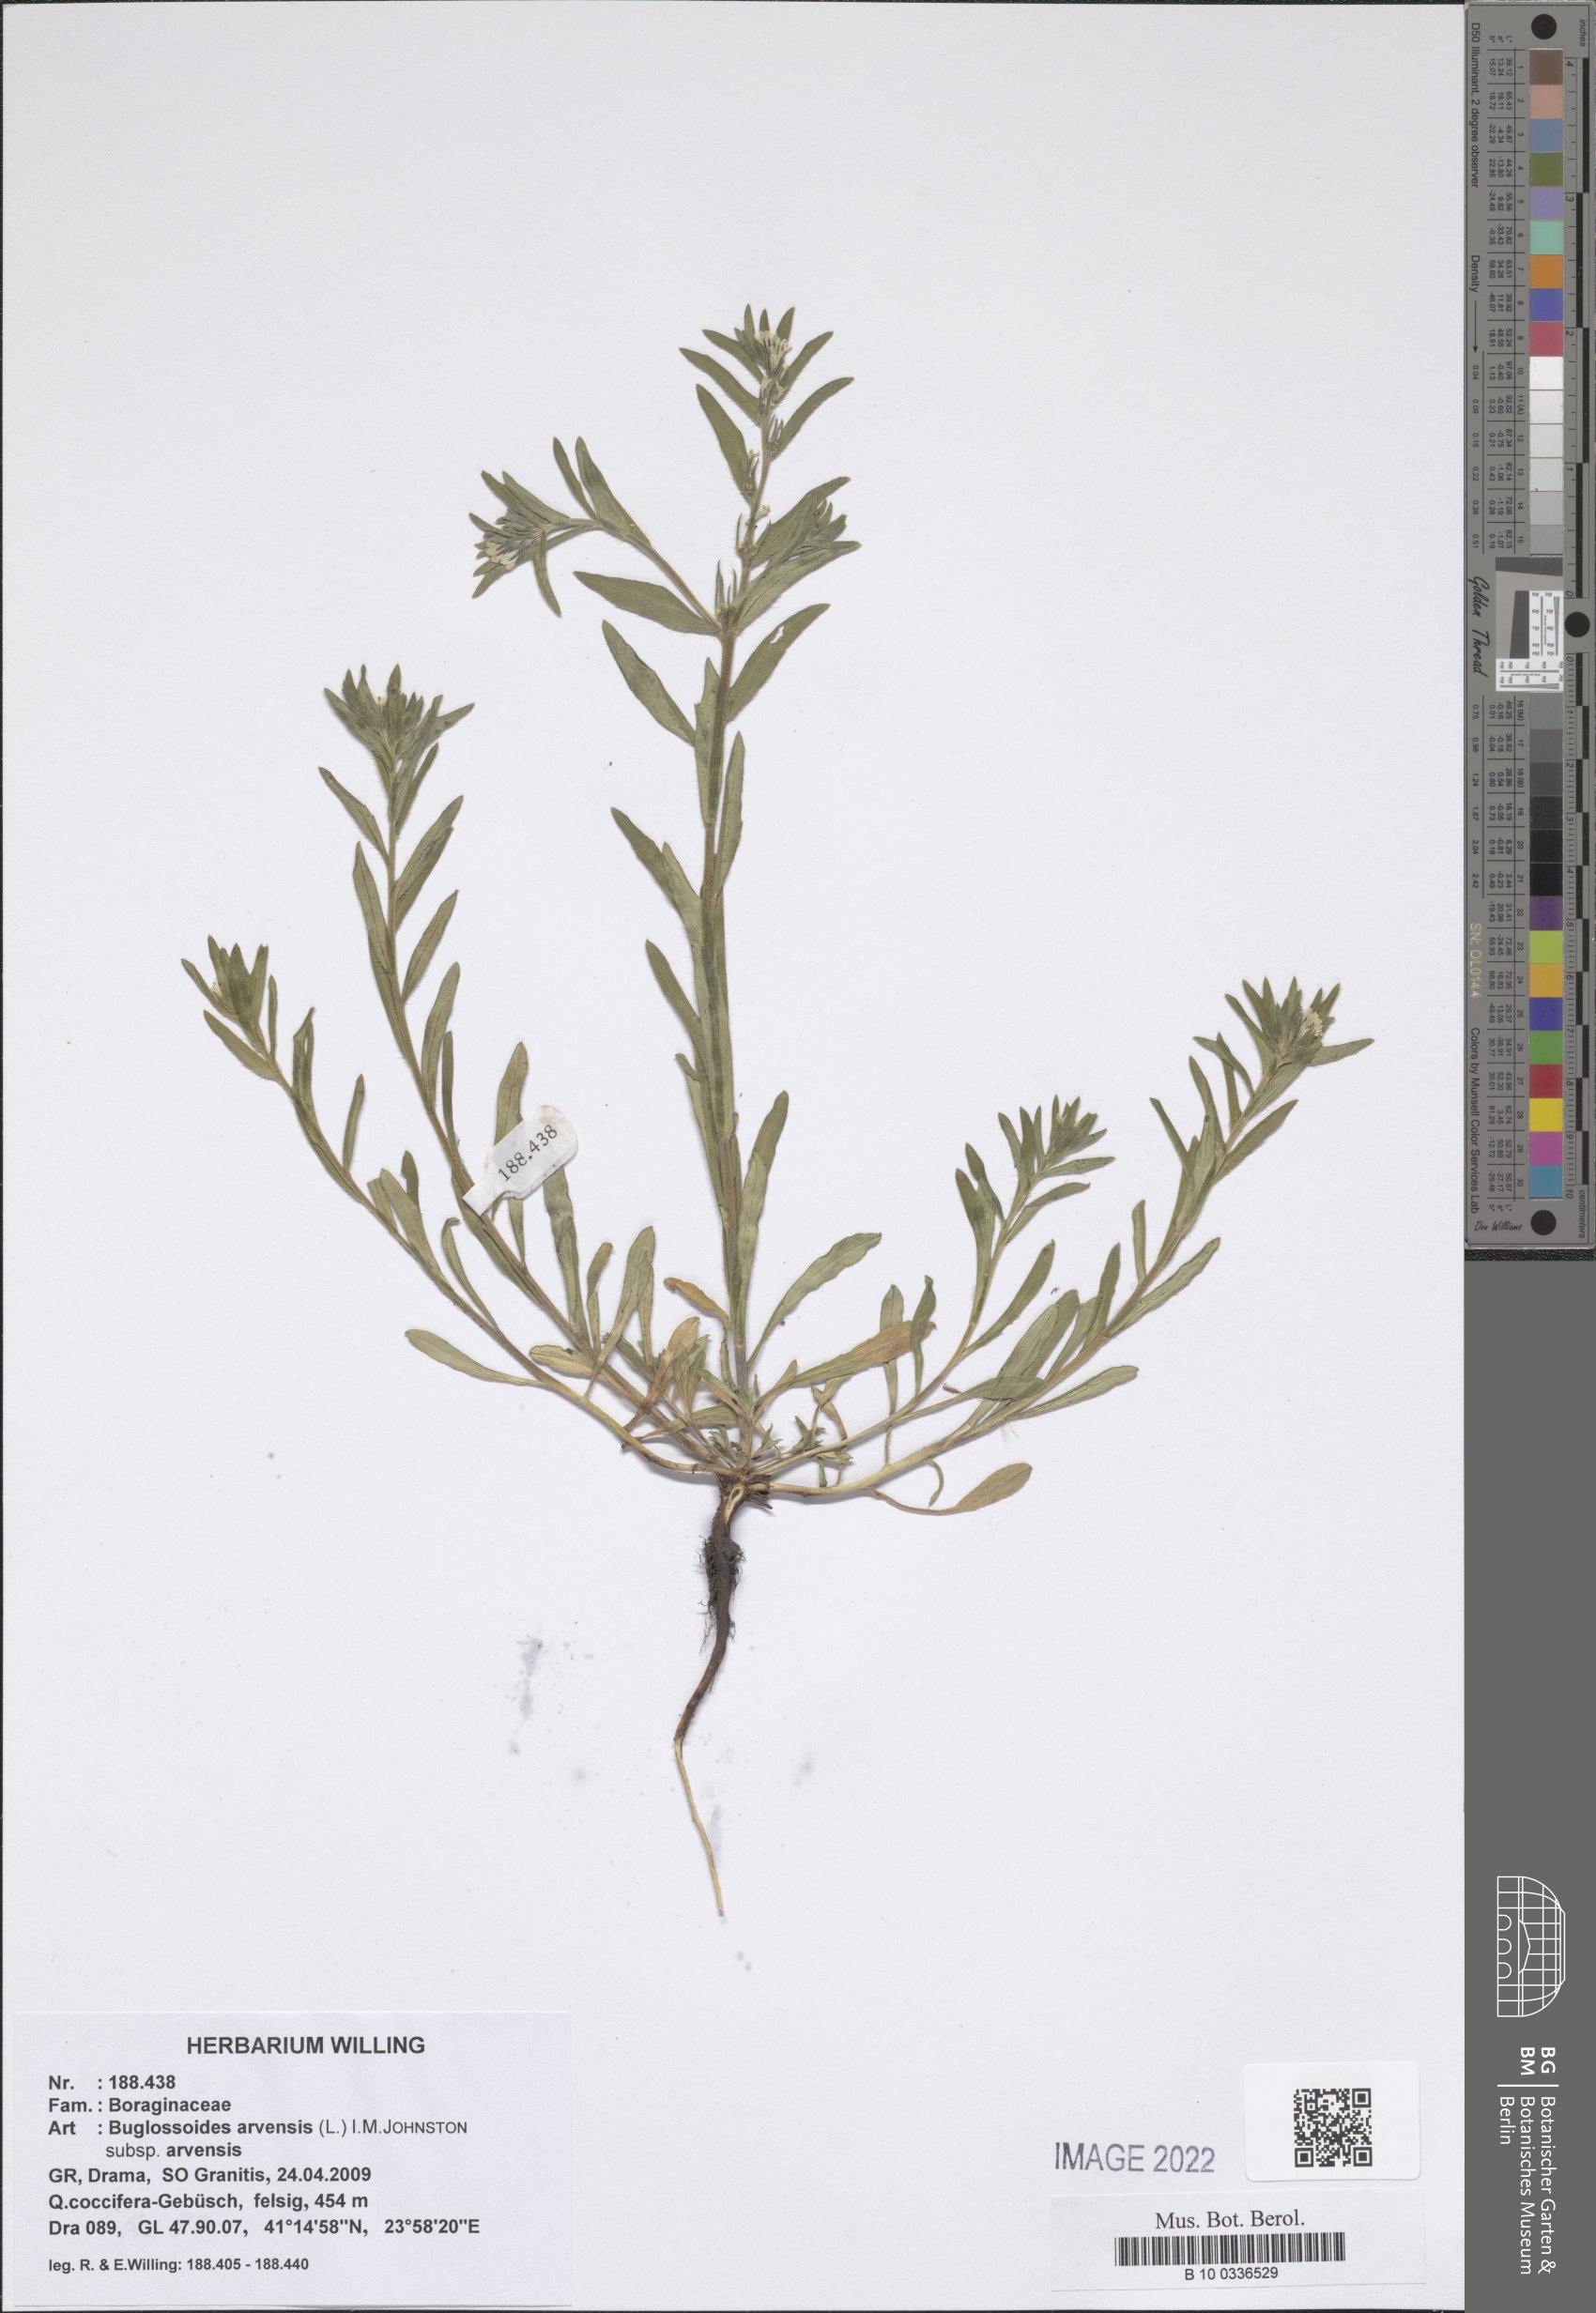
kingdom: Plantae
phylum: Tracheophyta
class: Magnoliopsida
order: Boraginales
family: Boraginaceae
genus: Buglossoides
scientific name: Buglossoides arvensis
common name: Corn gromwell
